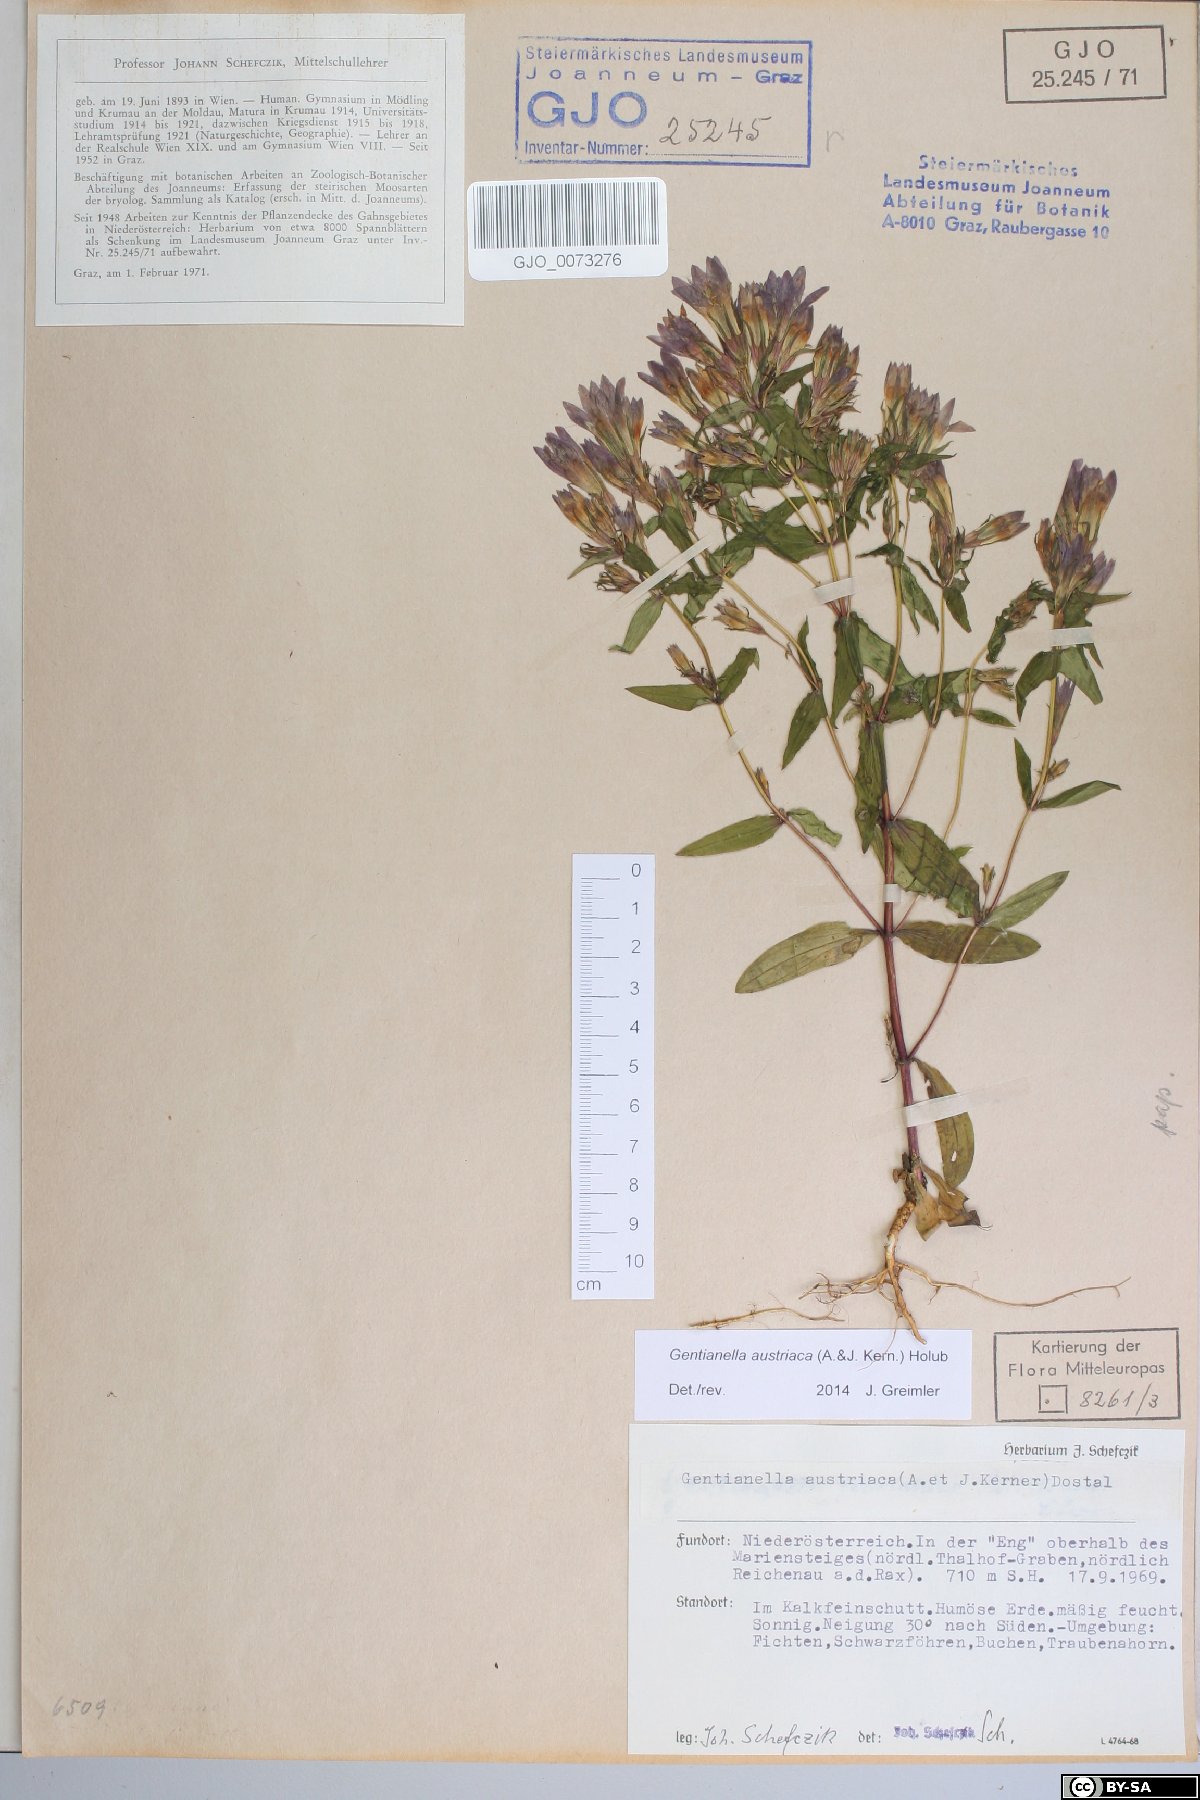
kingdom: Plantae
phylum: Tracheophyta
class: Magnoliopsida
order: Gentianales
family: Gentianaceae
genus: Gentianella
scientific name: Gentianella austriaca
